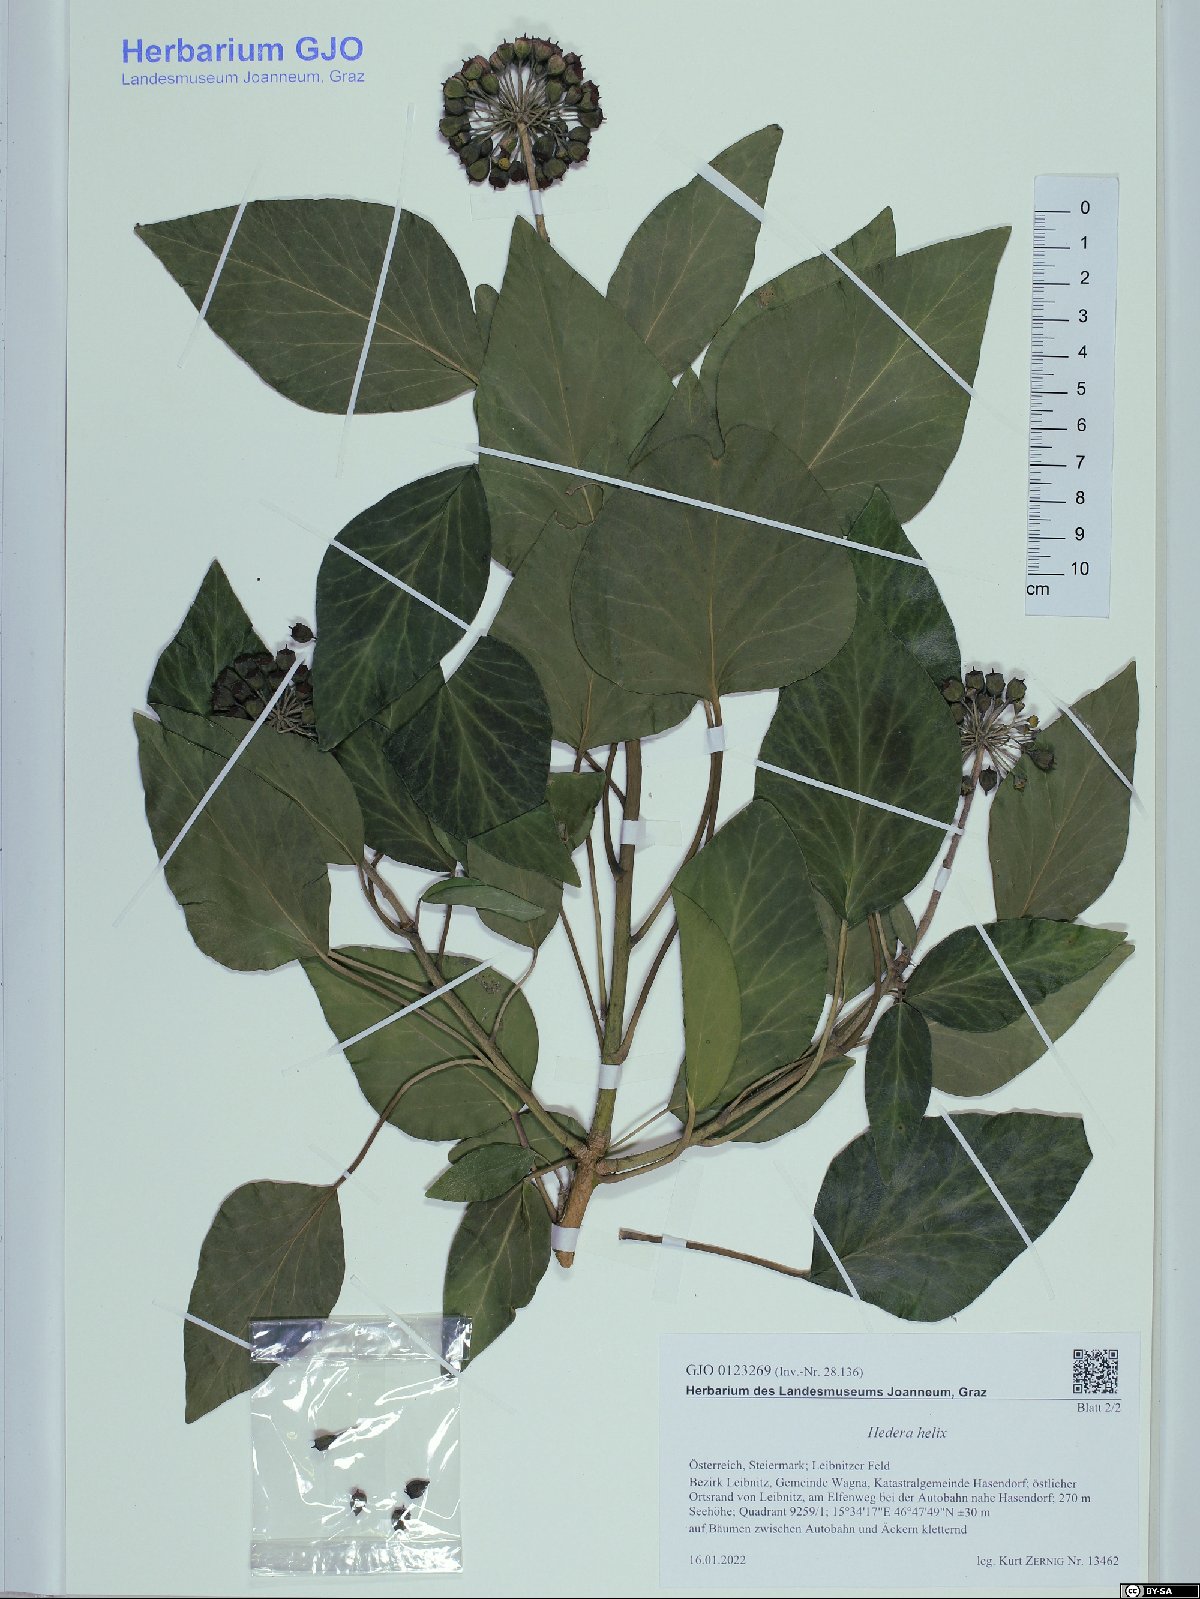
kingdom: Plantae
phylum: Tracheophyta
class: Magnoliopsida
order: Apiales
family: Araliaceae
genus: Hedera
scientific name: Hedera helix
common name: Ivy
